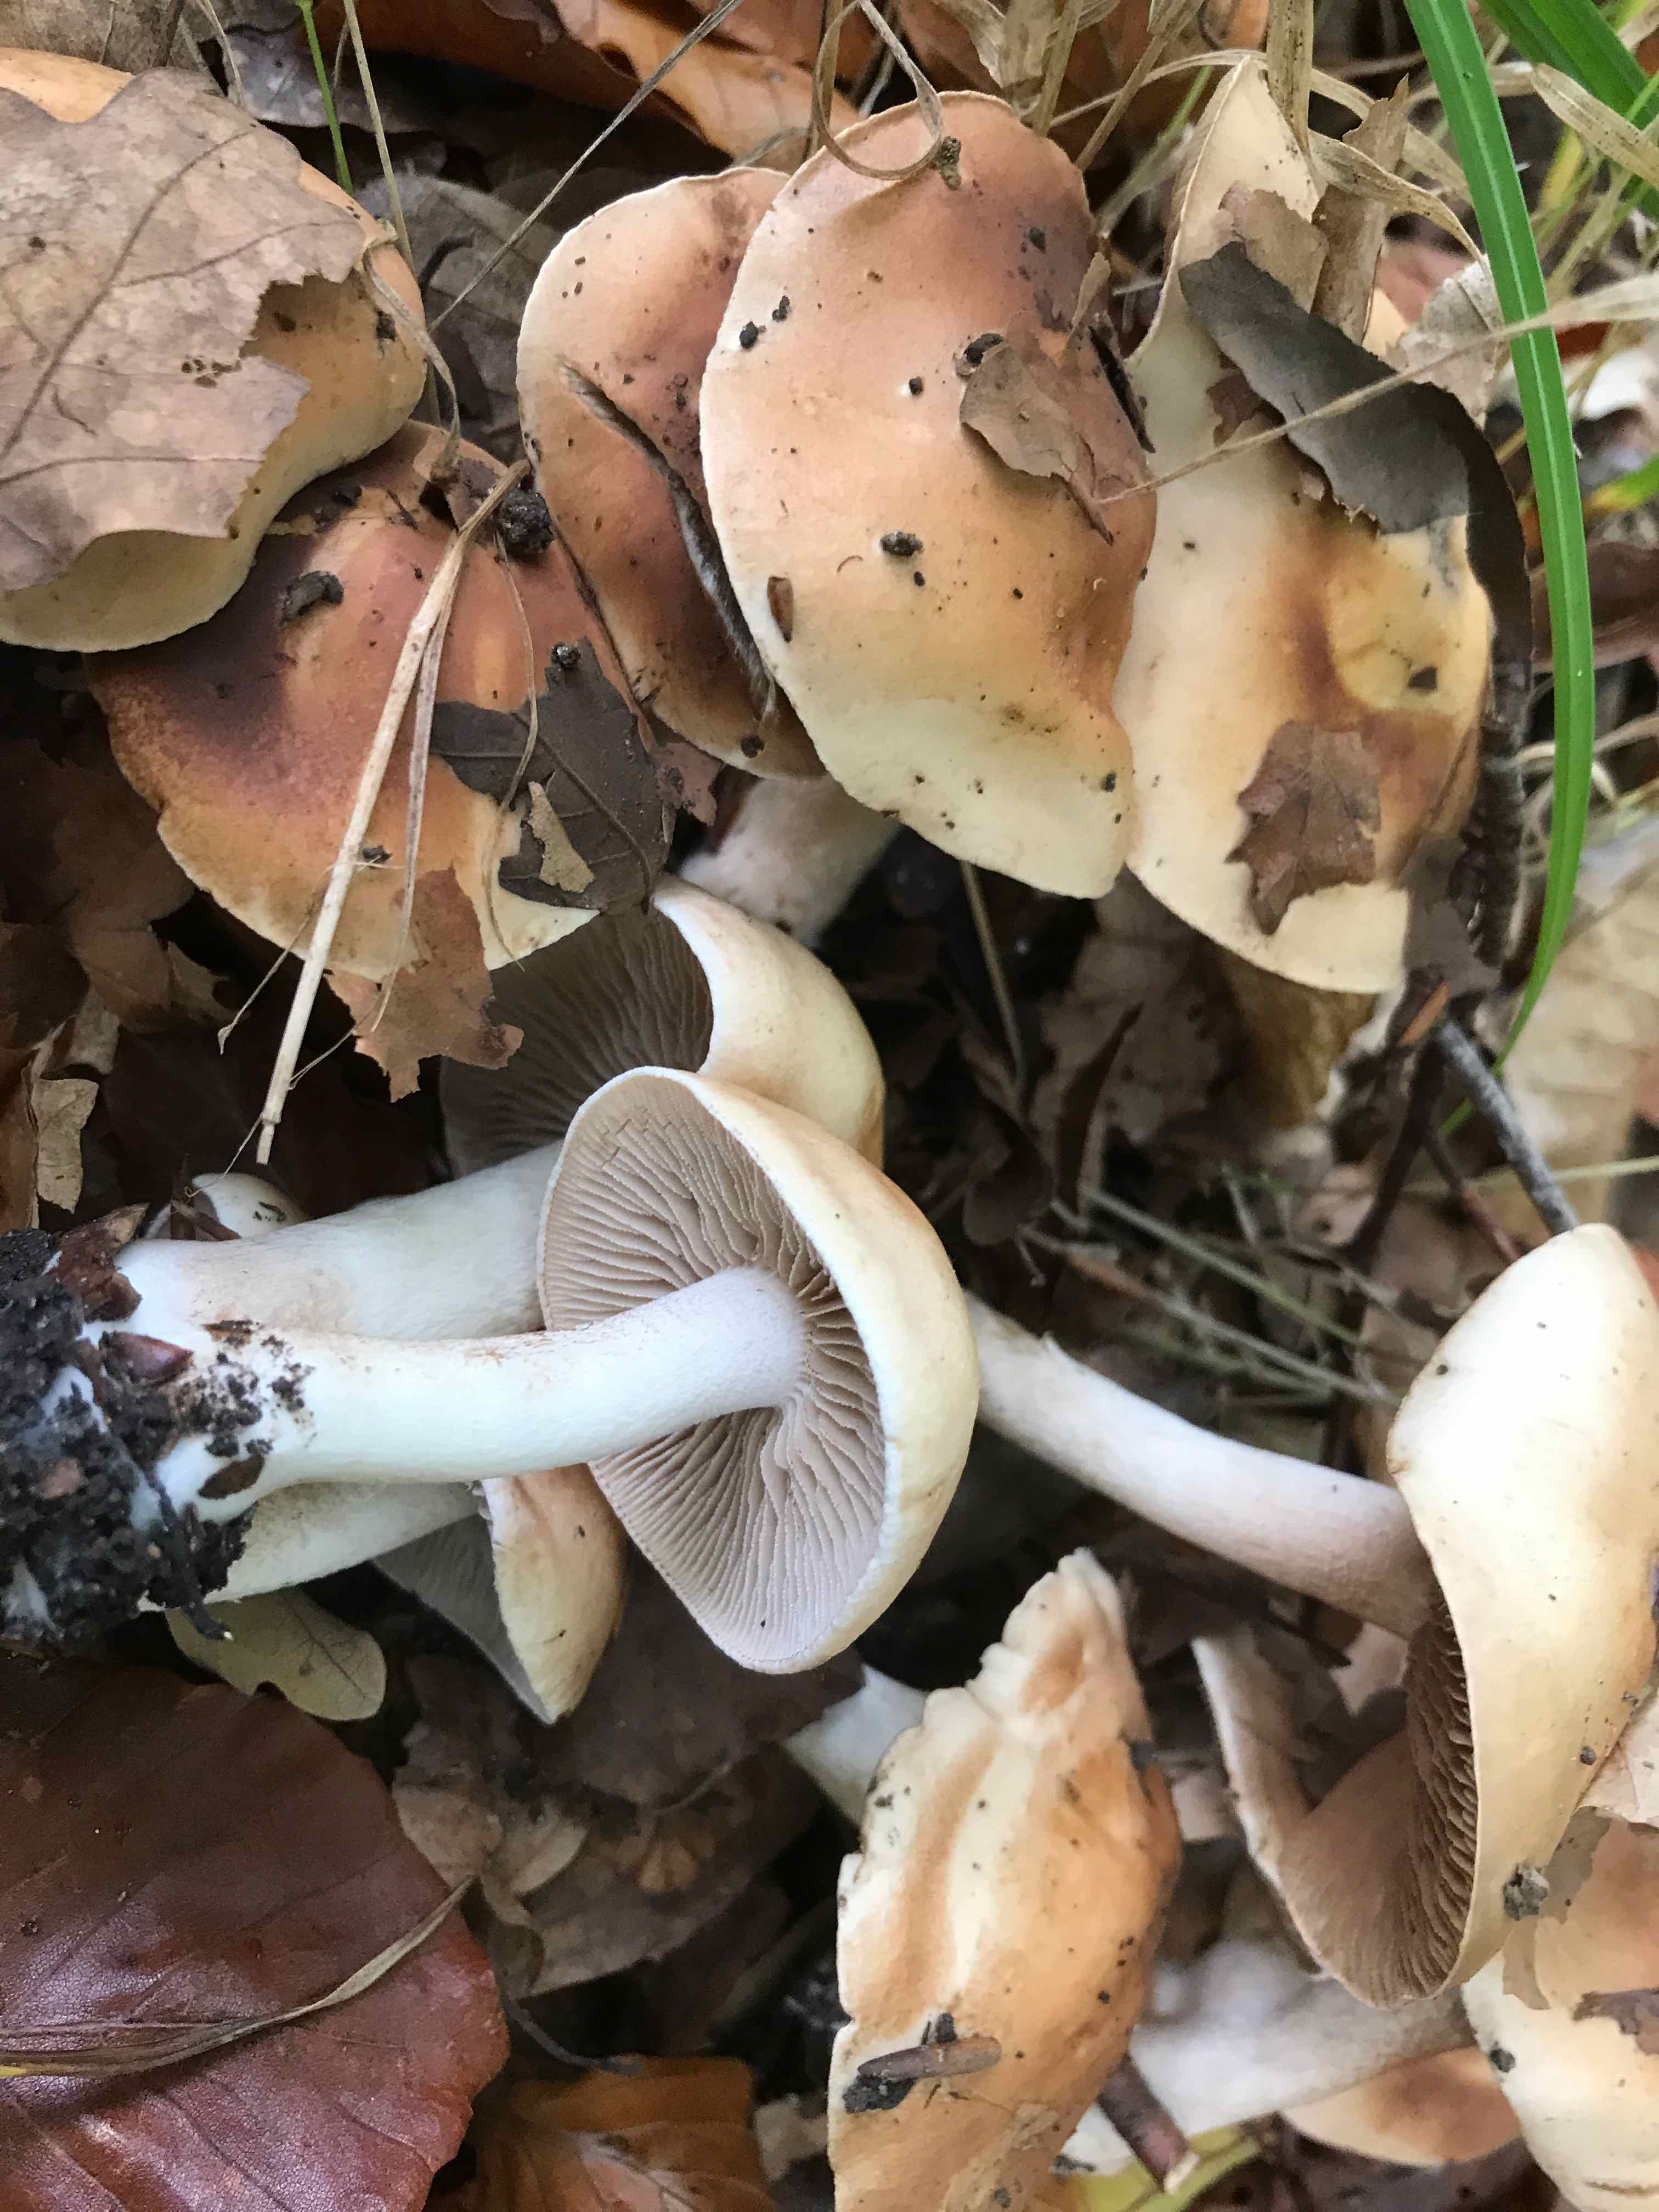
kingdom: Fungi
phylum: Basidiomycota
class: Agaricomycetes
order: Agaricales
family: Hymenogastraceae
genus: Hebeloma
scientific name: Hebeloma
